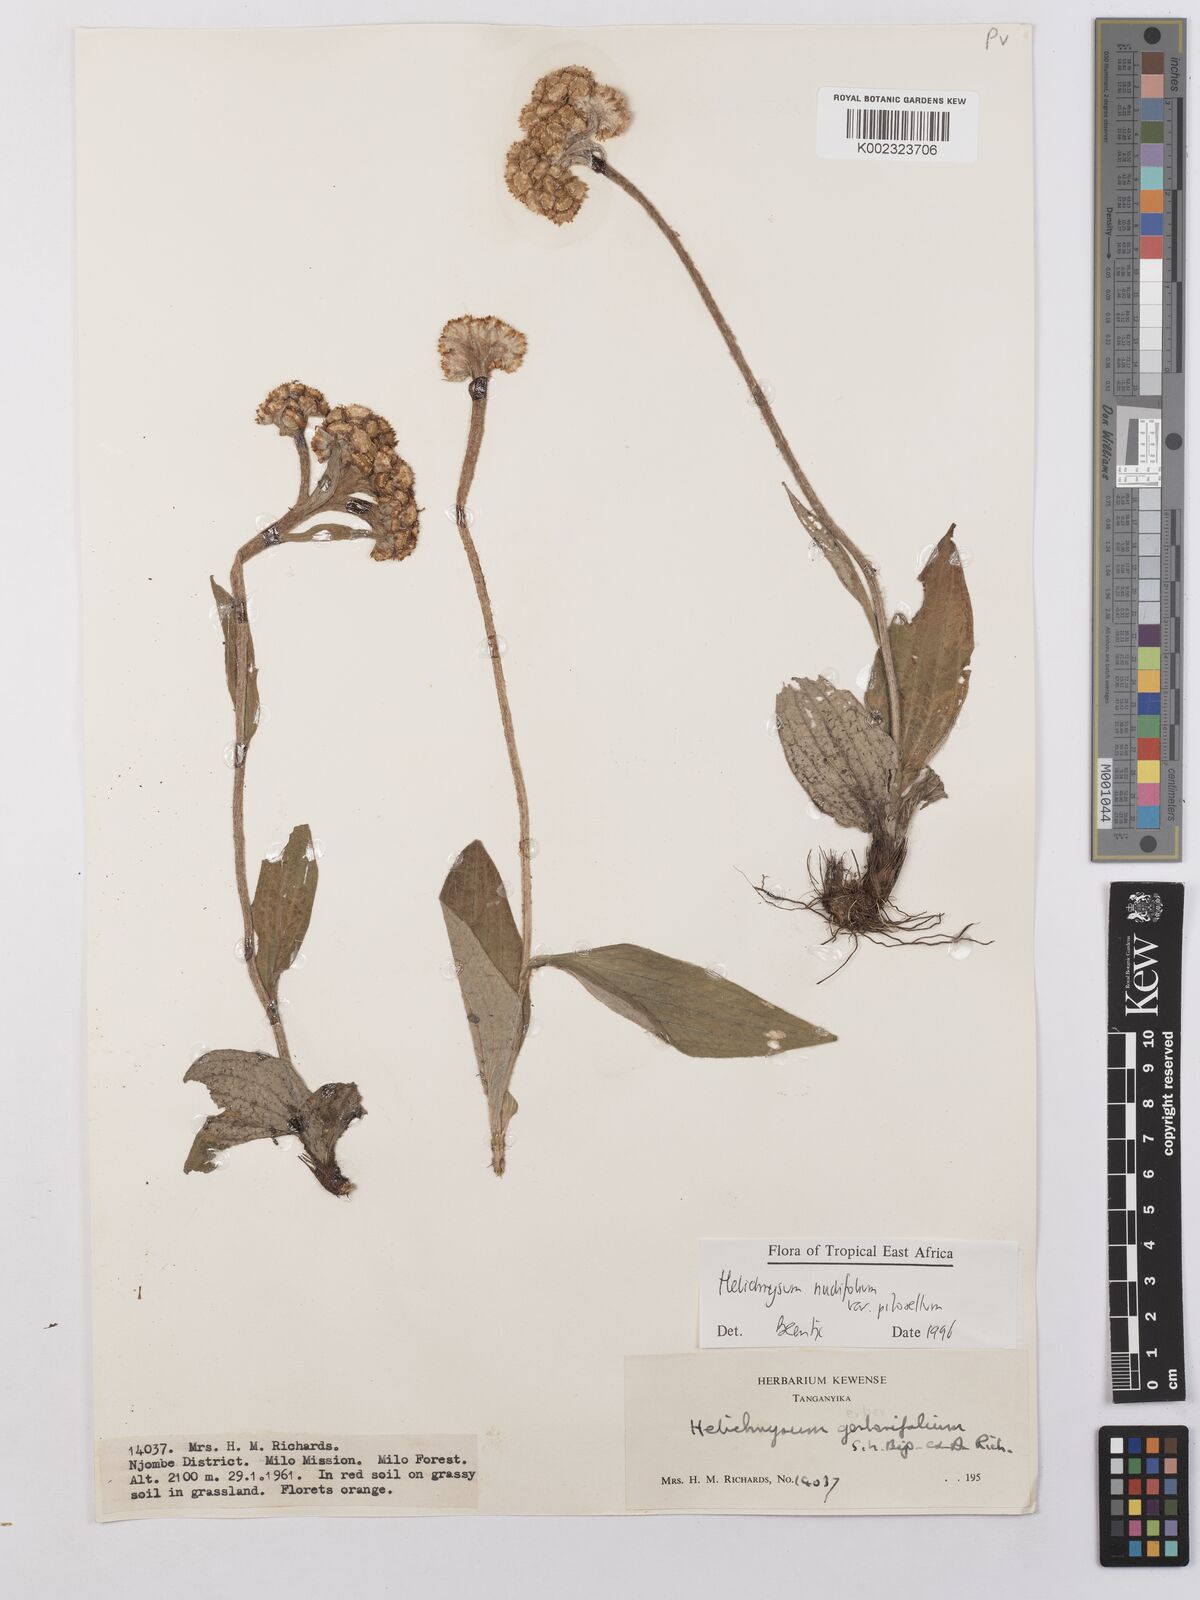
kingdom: Plantae
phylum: Tracheophyta
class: Magnoliopsida
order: Asterales
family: Asteraceae
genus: Helichrysum
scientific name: Helichrysum nudifolium
